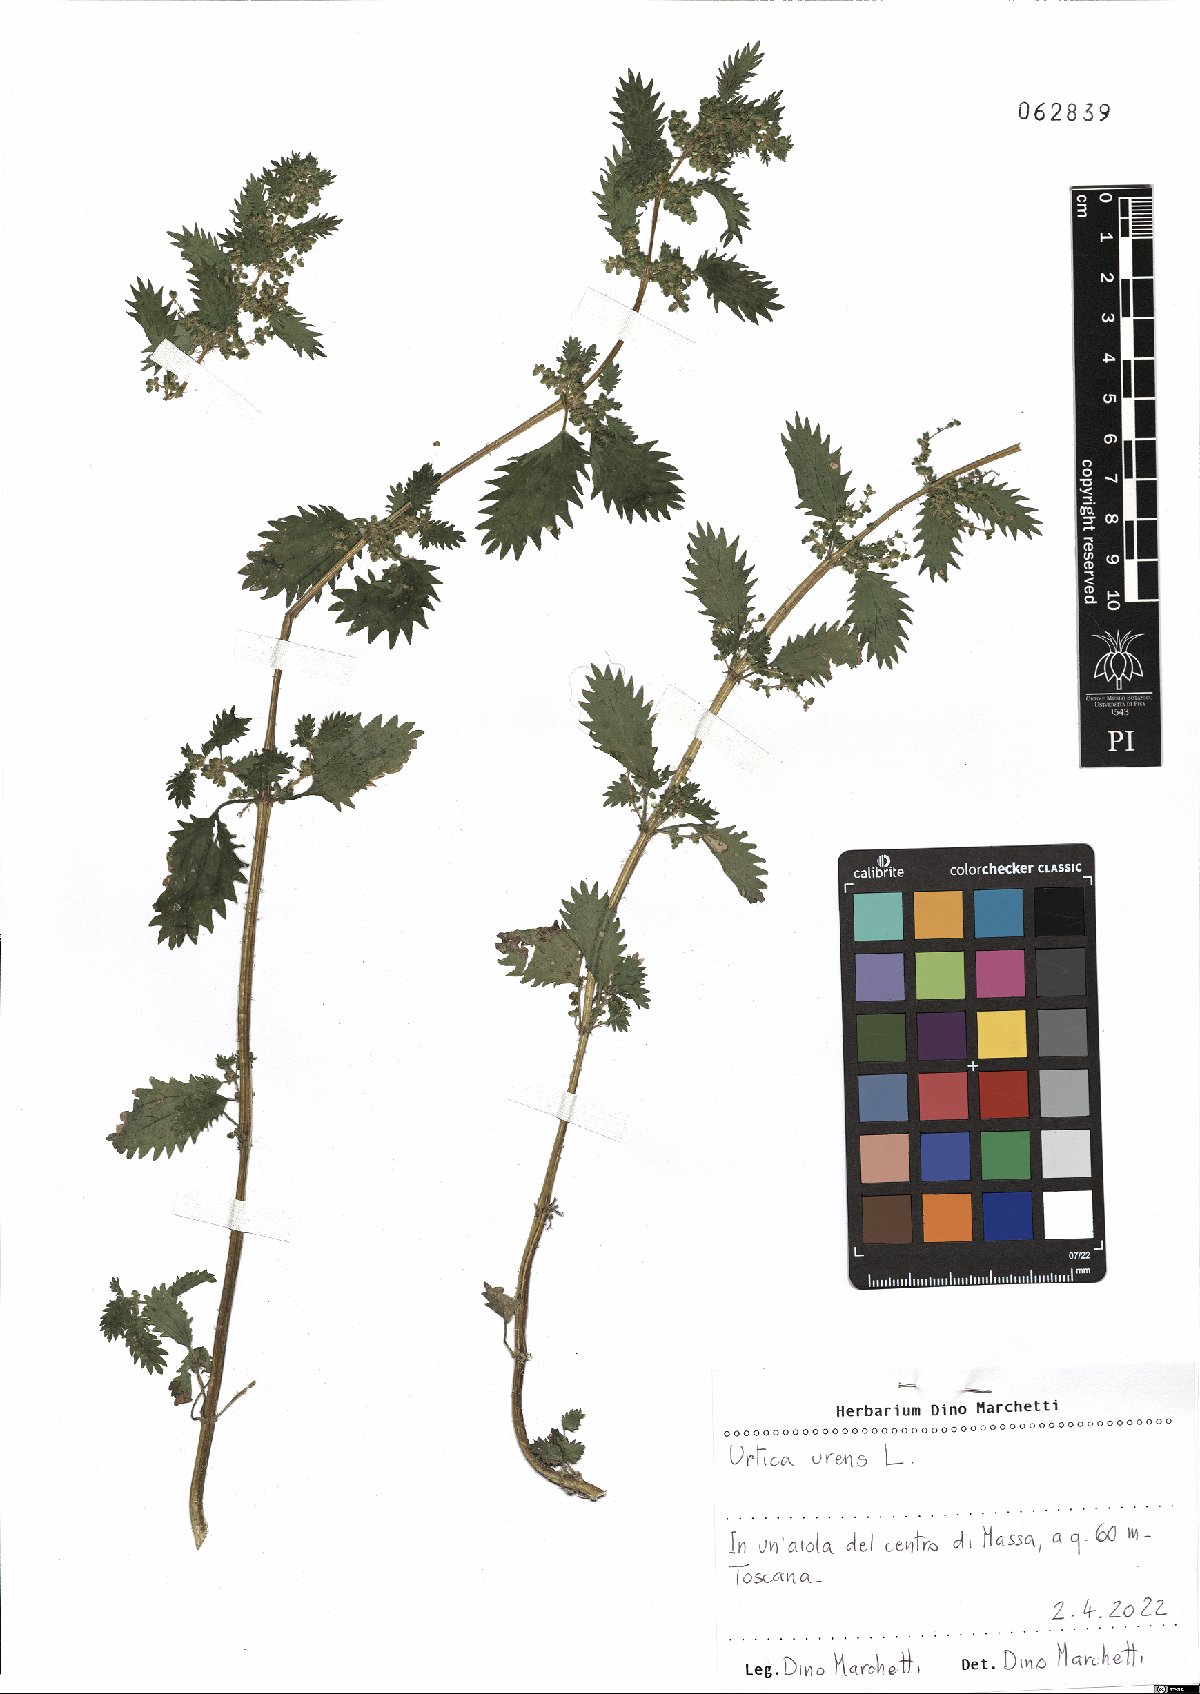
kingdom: Plantae
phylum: Tracheophyta
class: Magnoliopsida
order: Rosales
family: Urticaceae
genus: Urtica
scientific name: Urtica urens
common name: Dwarf nettle
